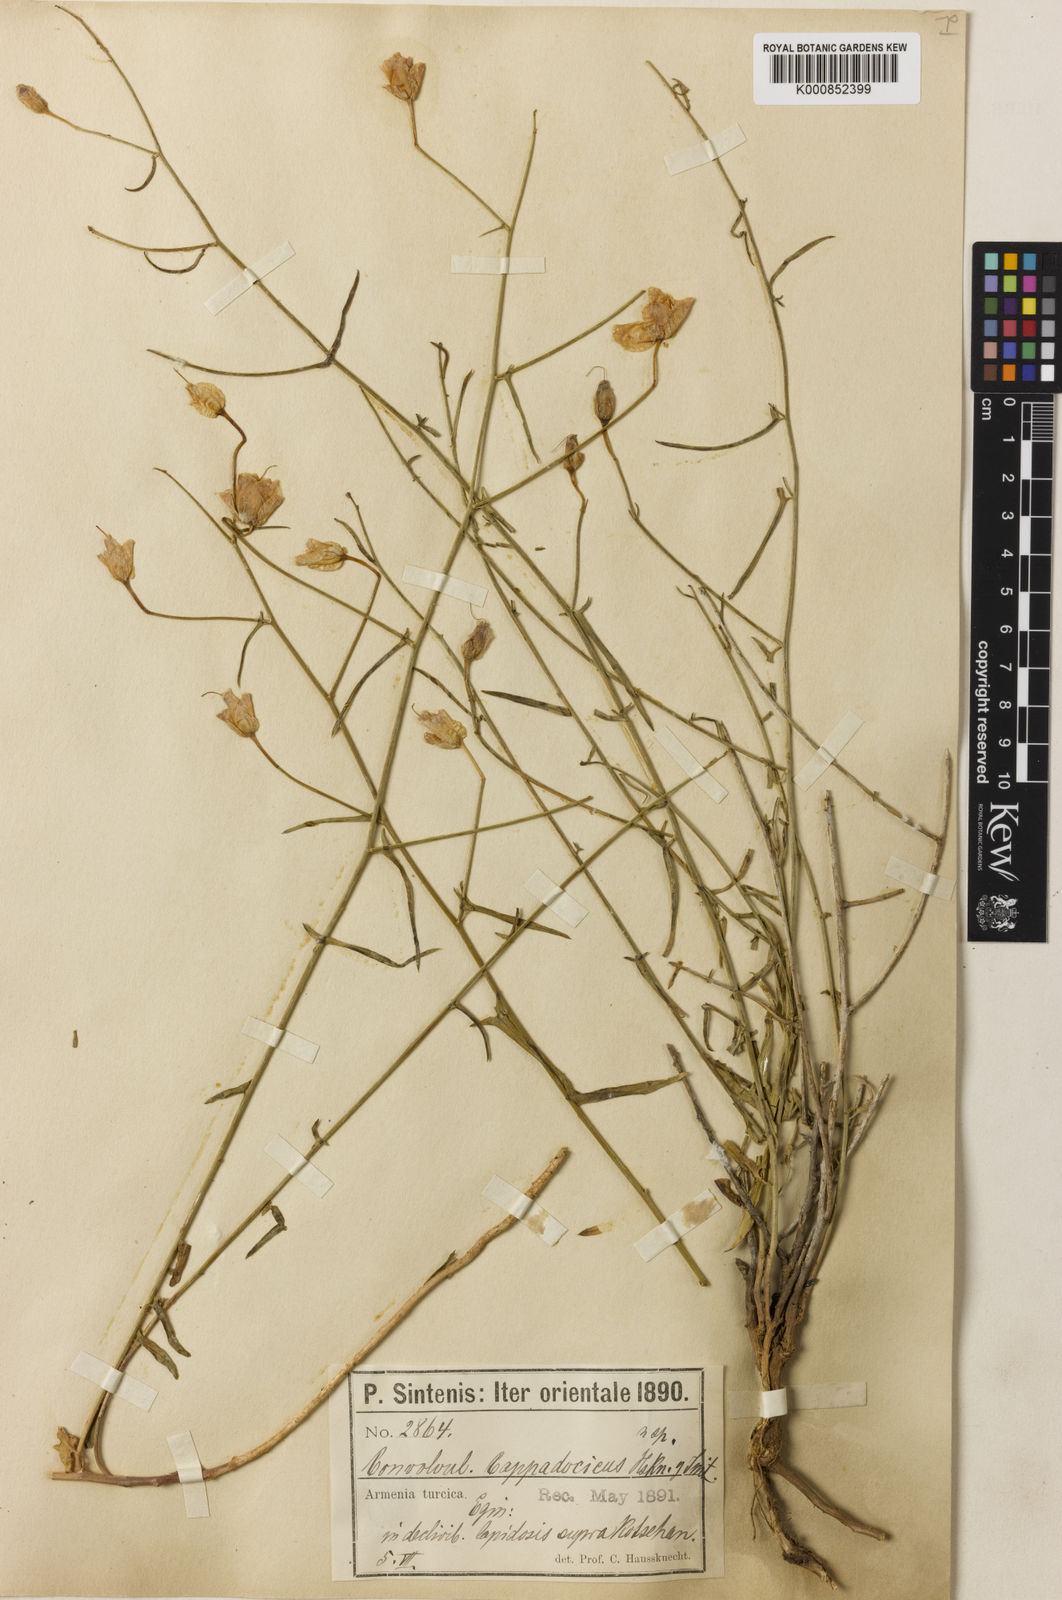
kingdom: Plantae
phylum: Tracheophyta
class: Magnoliopsida
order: Solanales
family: Convolvulaceae
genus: Convolvulus
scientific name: Convolvulus pseudoscammonia
